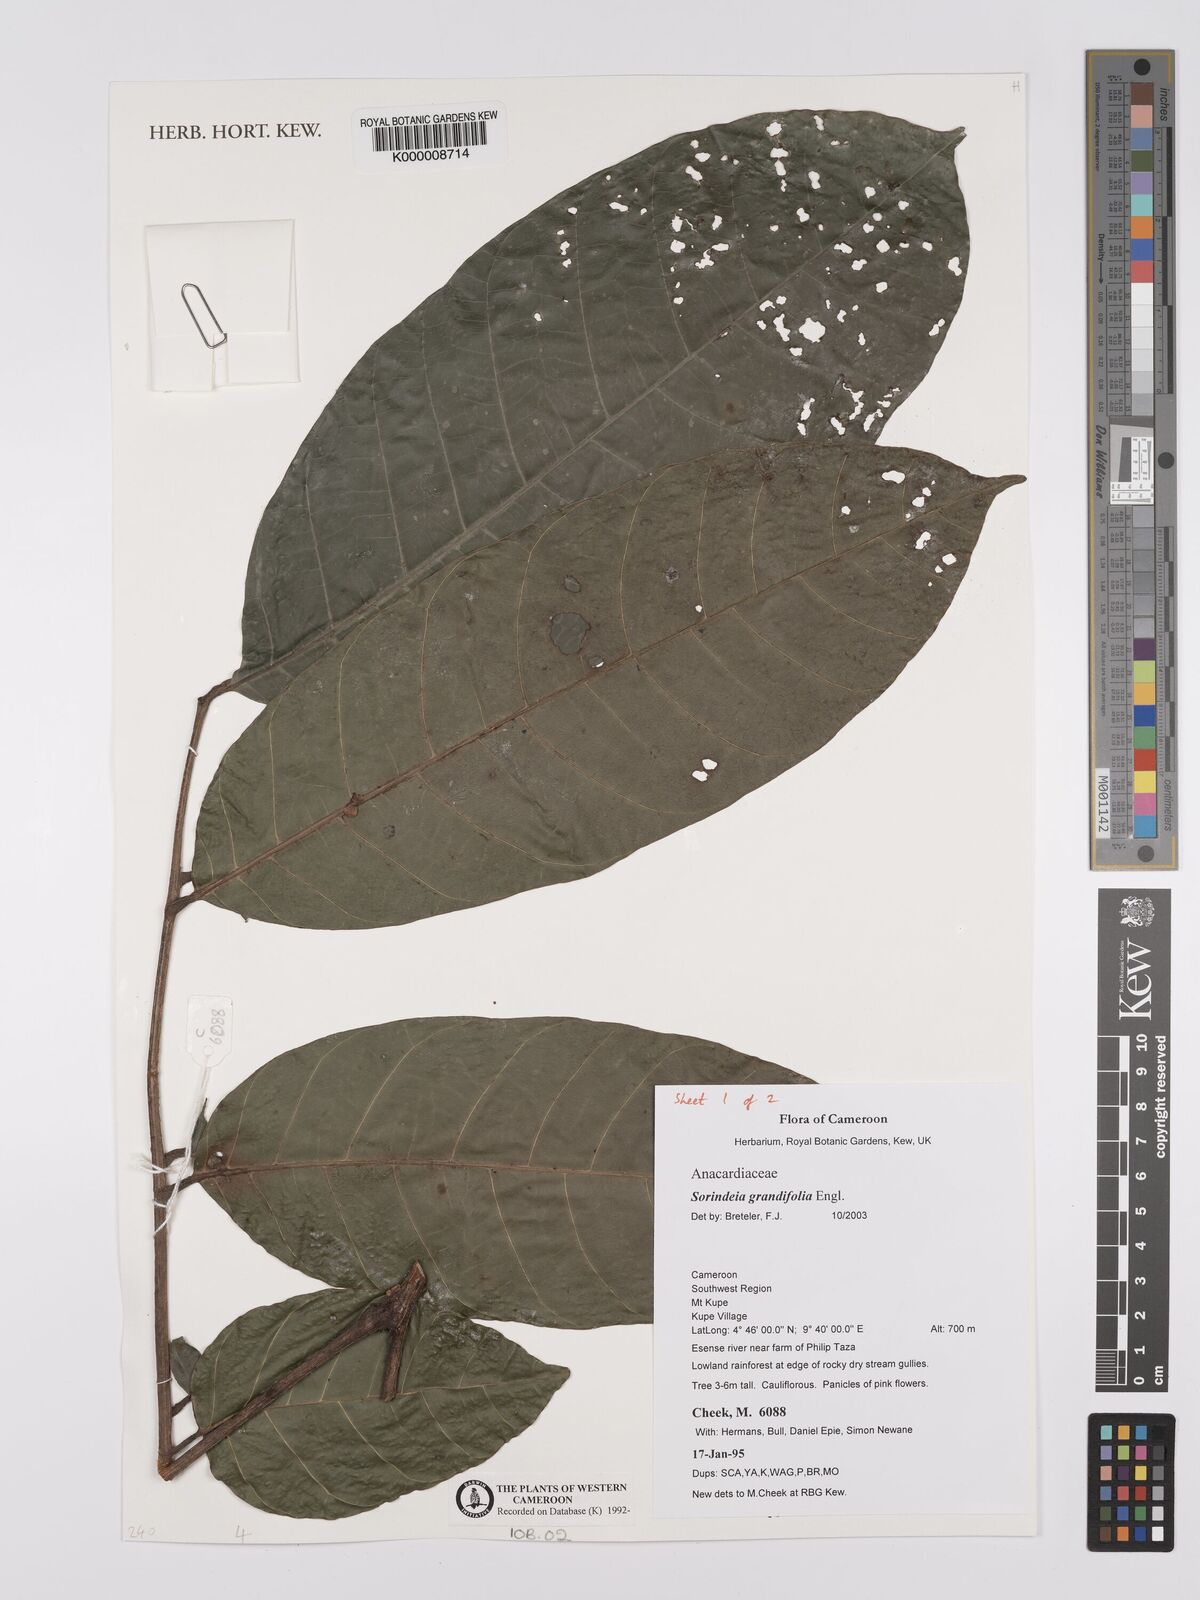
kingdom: Plantae
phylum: Tracheophyta
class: Magnoliopsida
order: Sapindales
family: Anacardiaceae
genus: Sorindeia
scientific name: Sorindeia grandifolia
